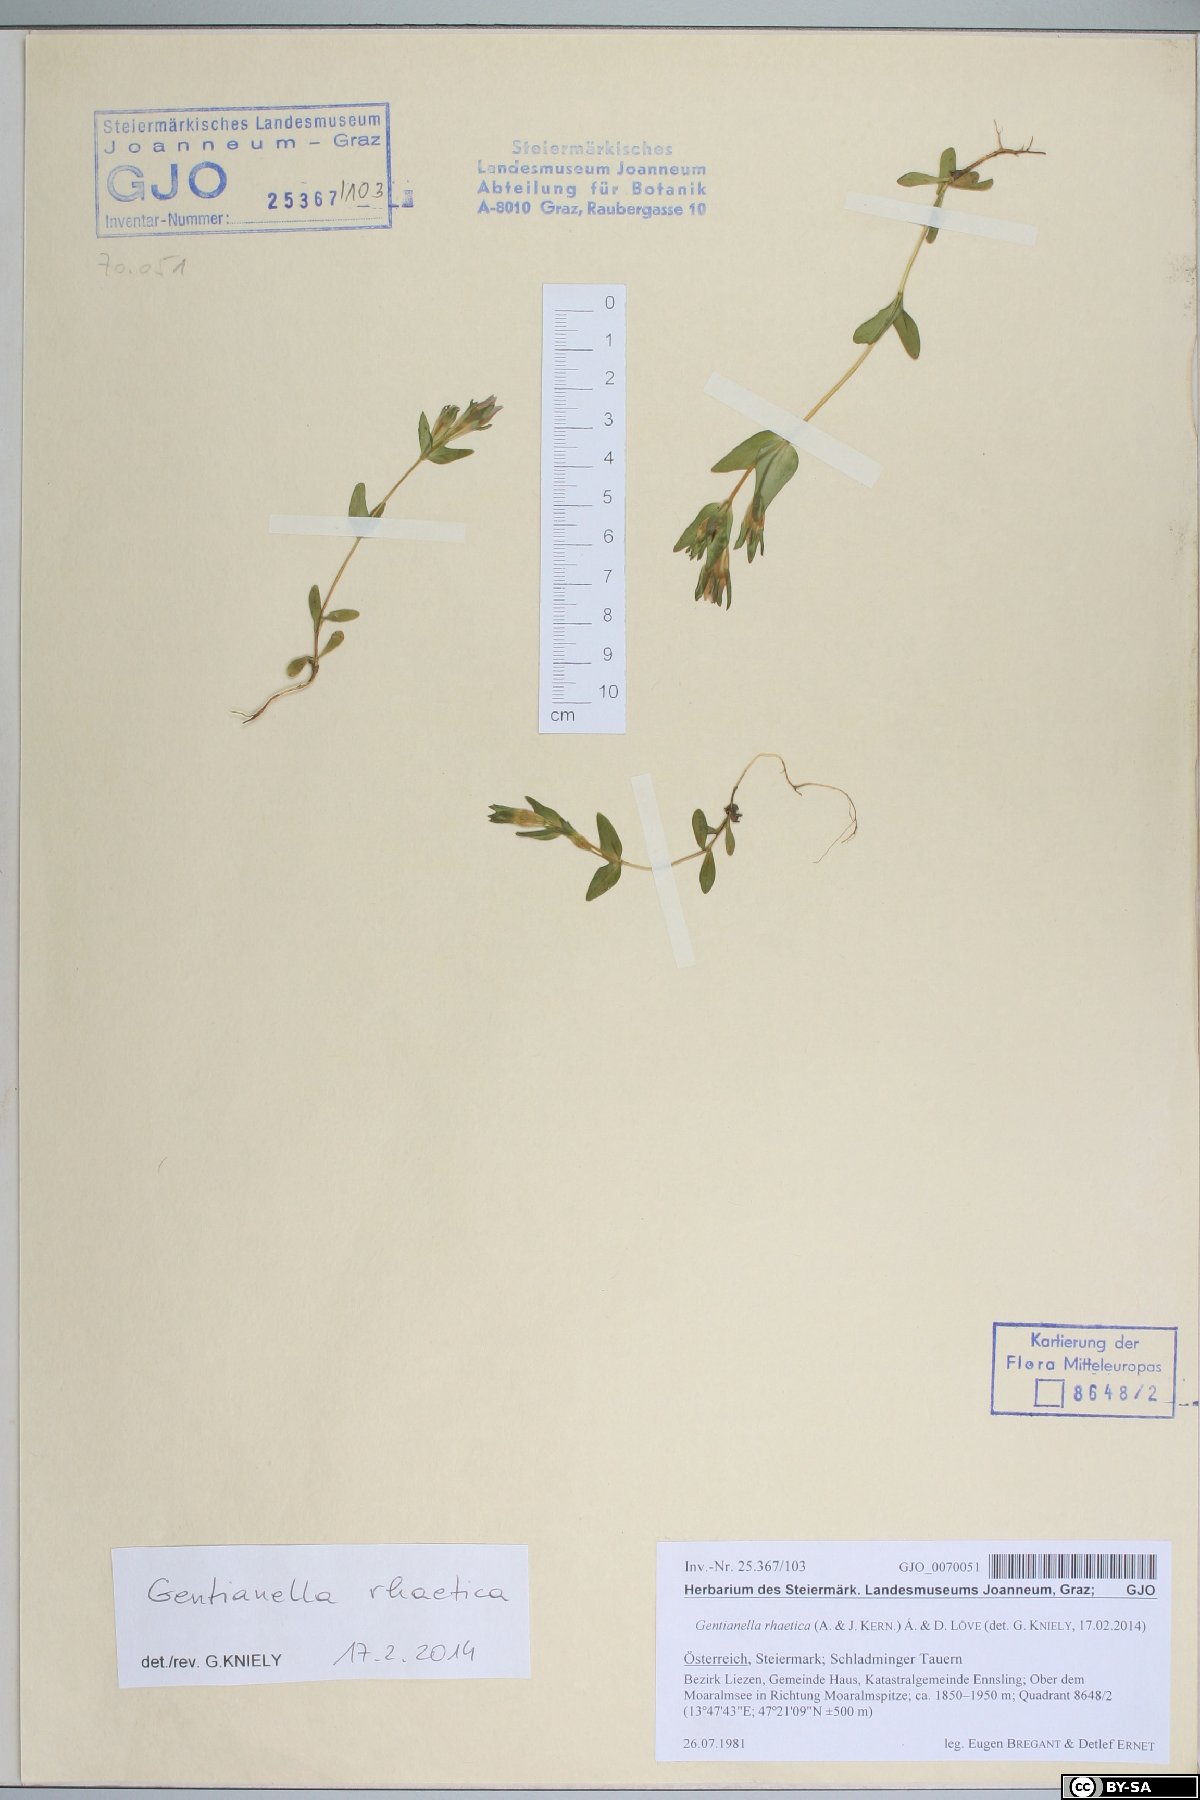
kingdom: Plantae
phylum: Tracheophyta
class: Magnoliopsida
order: Gentianales
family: Gentianaceae
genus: Gentianella
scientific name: Gentianella rhaetica
